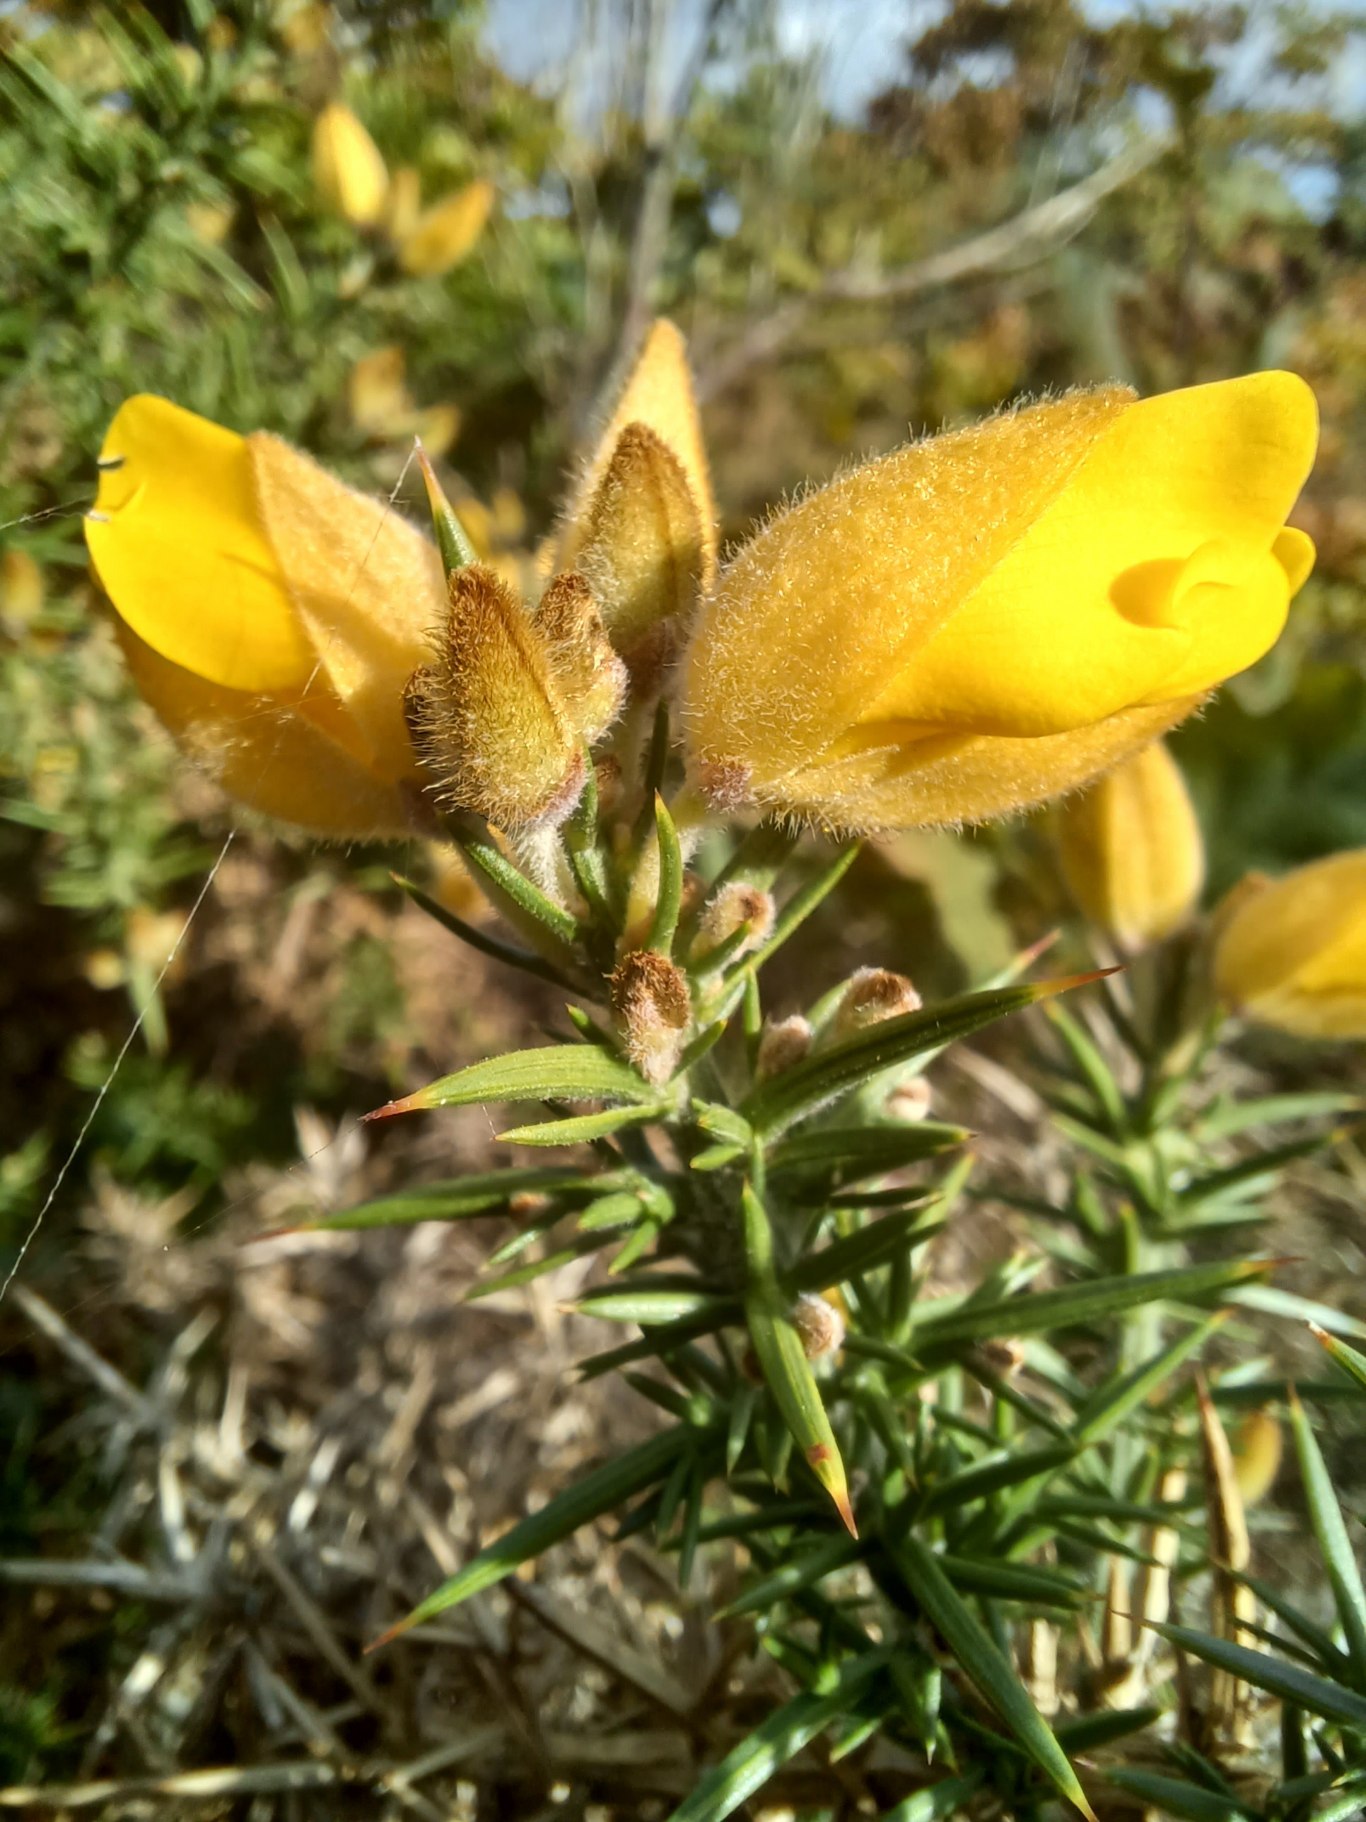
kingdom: Plantae
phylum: Tracheophyta
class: Magnoliopsida
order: Fabales
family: Fabaceae
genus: Ulex
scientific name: Ulex europaeus
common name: Tornblad
